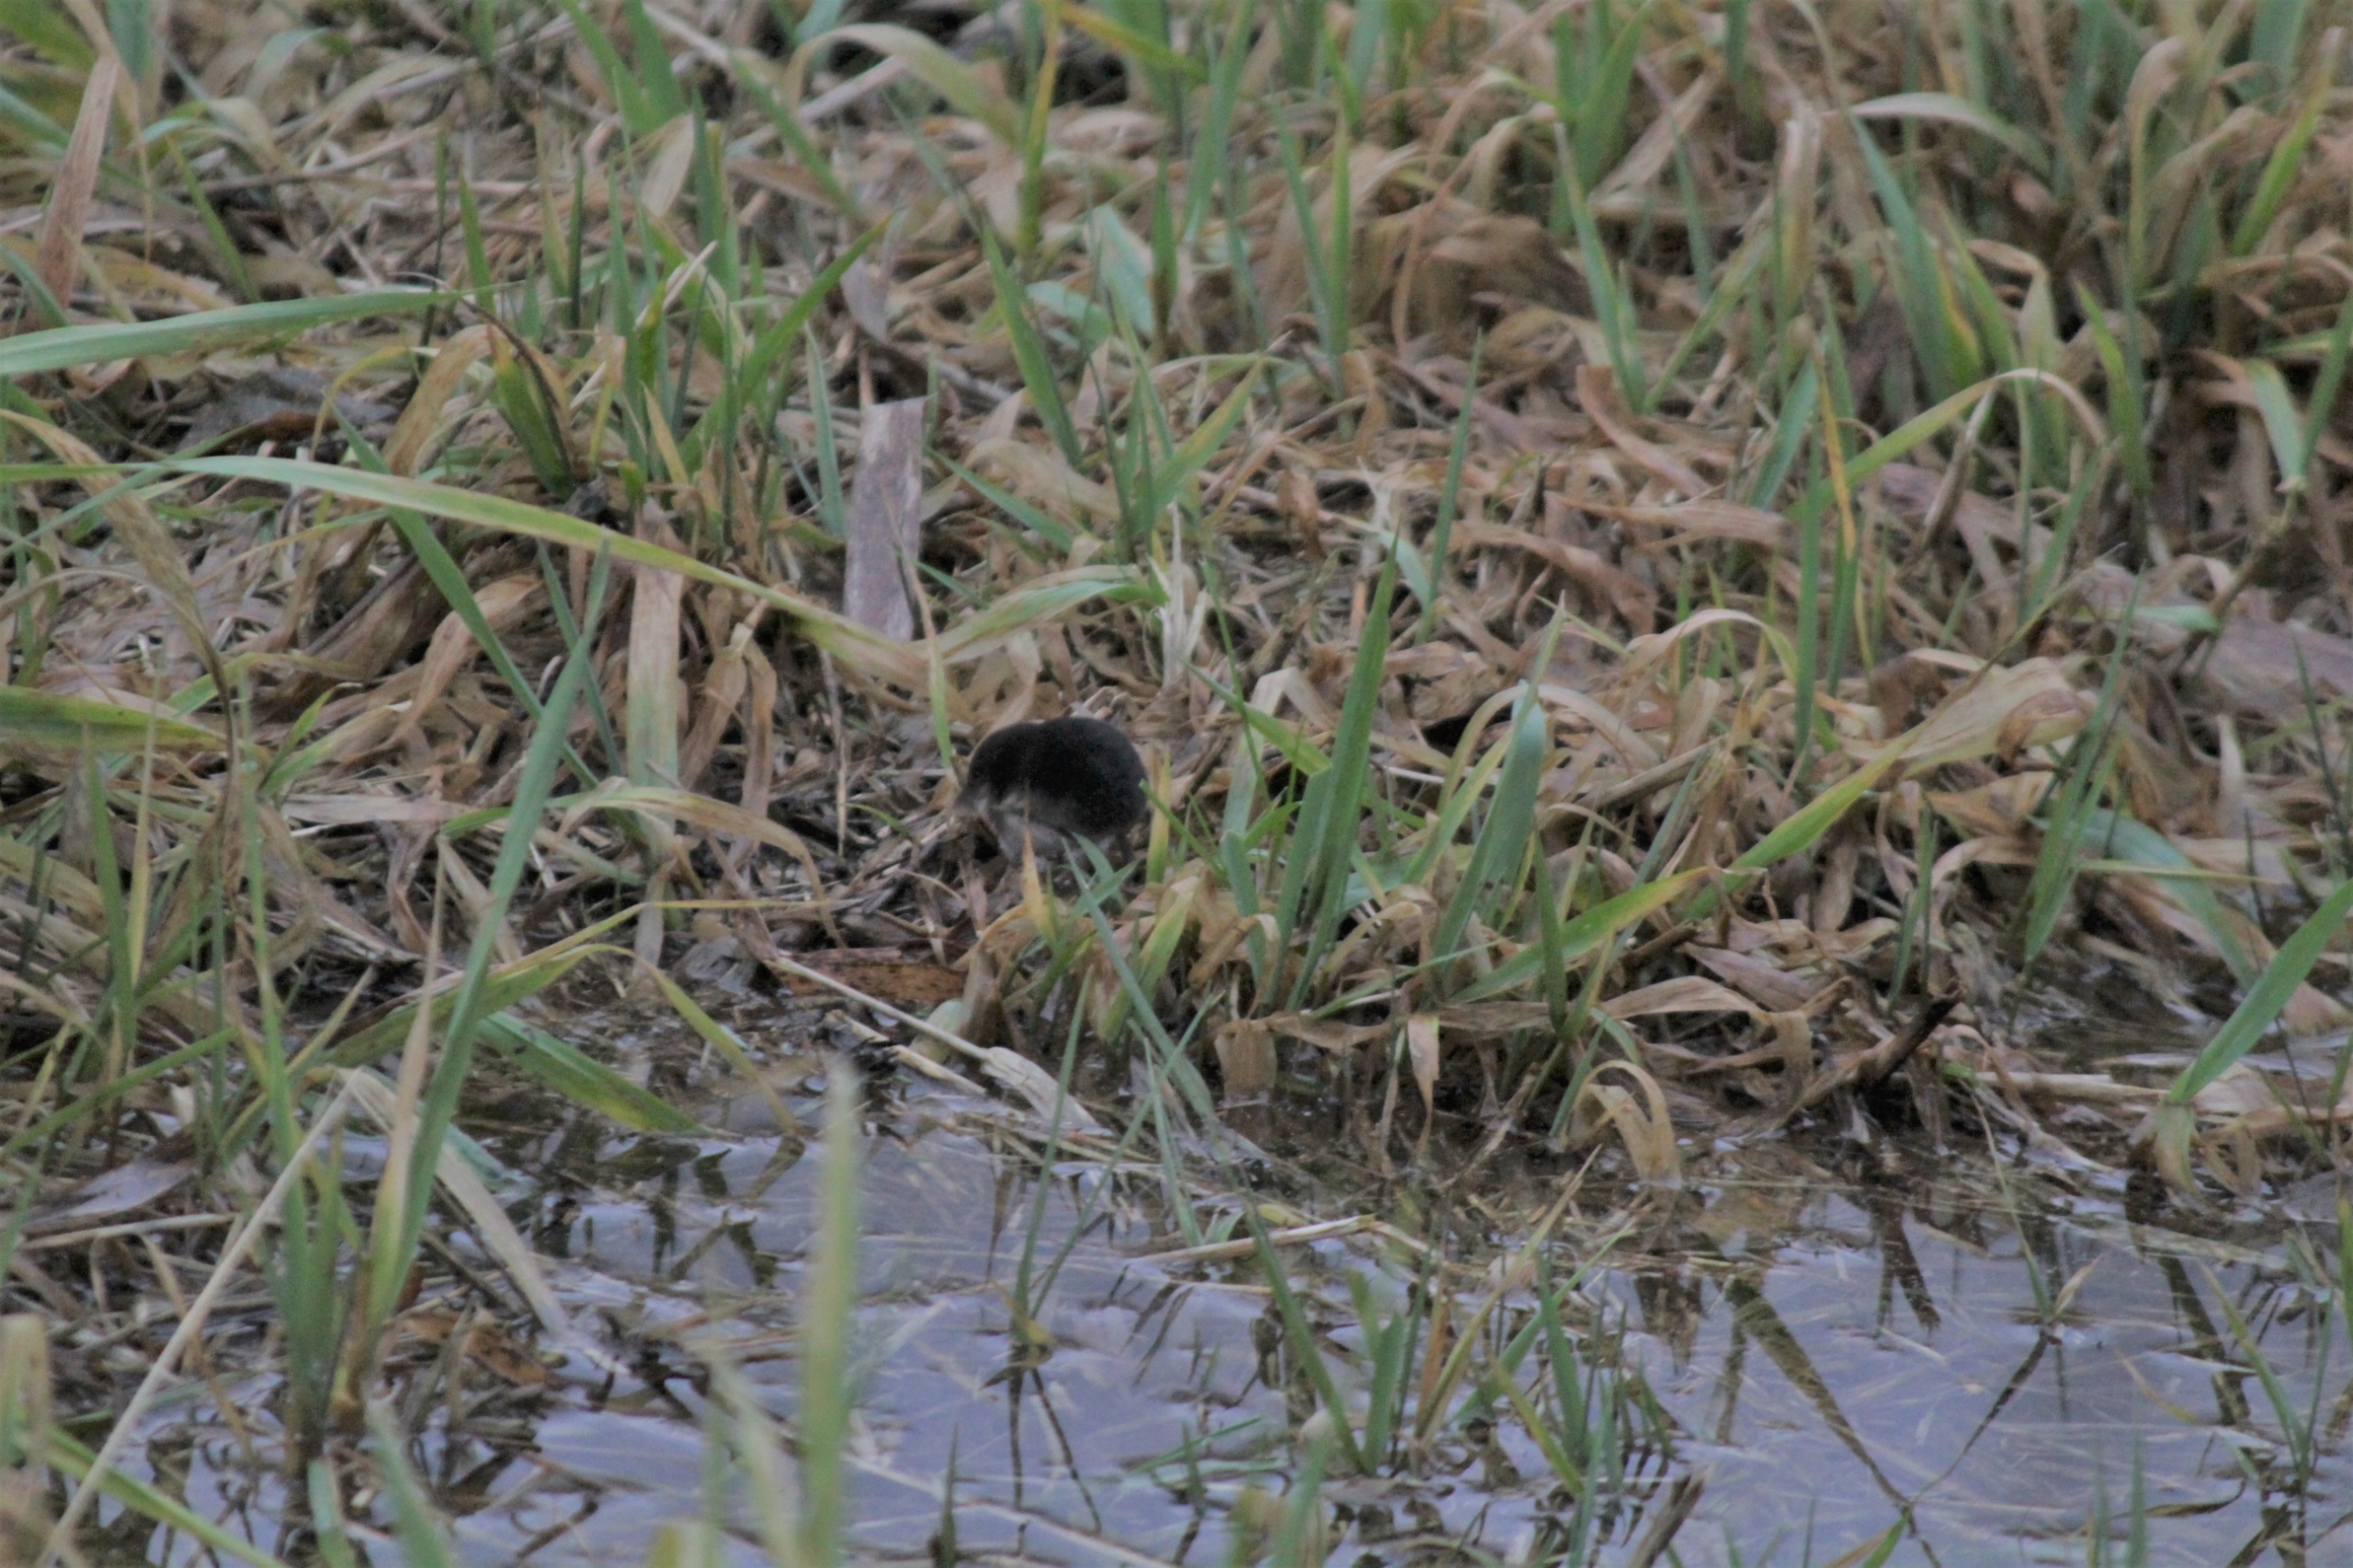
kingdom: Animalia
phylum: Chordata
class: Mammalia
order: Soricomorpha
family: Soricidae
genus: Neomys
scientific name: Neomys fodiens
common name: Vandspidsmus
